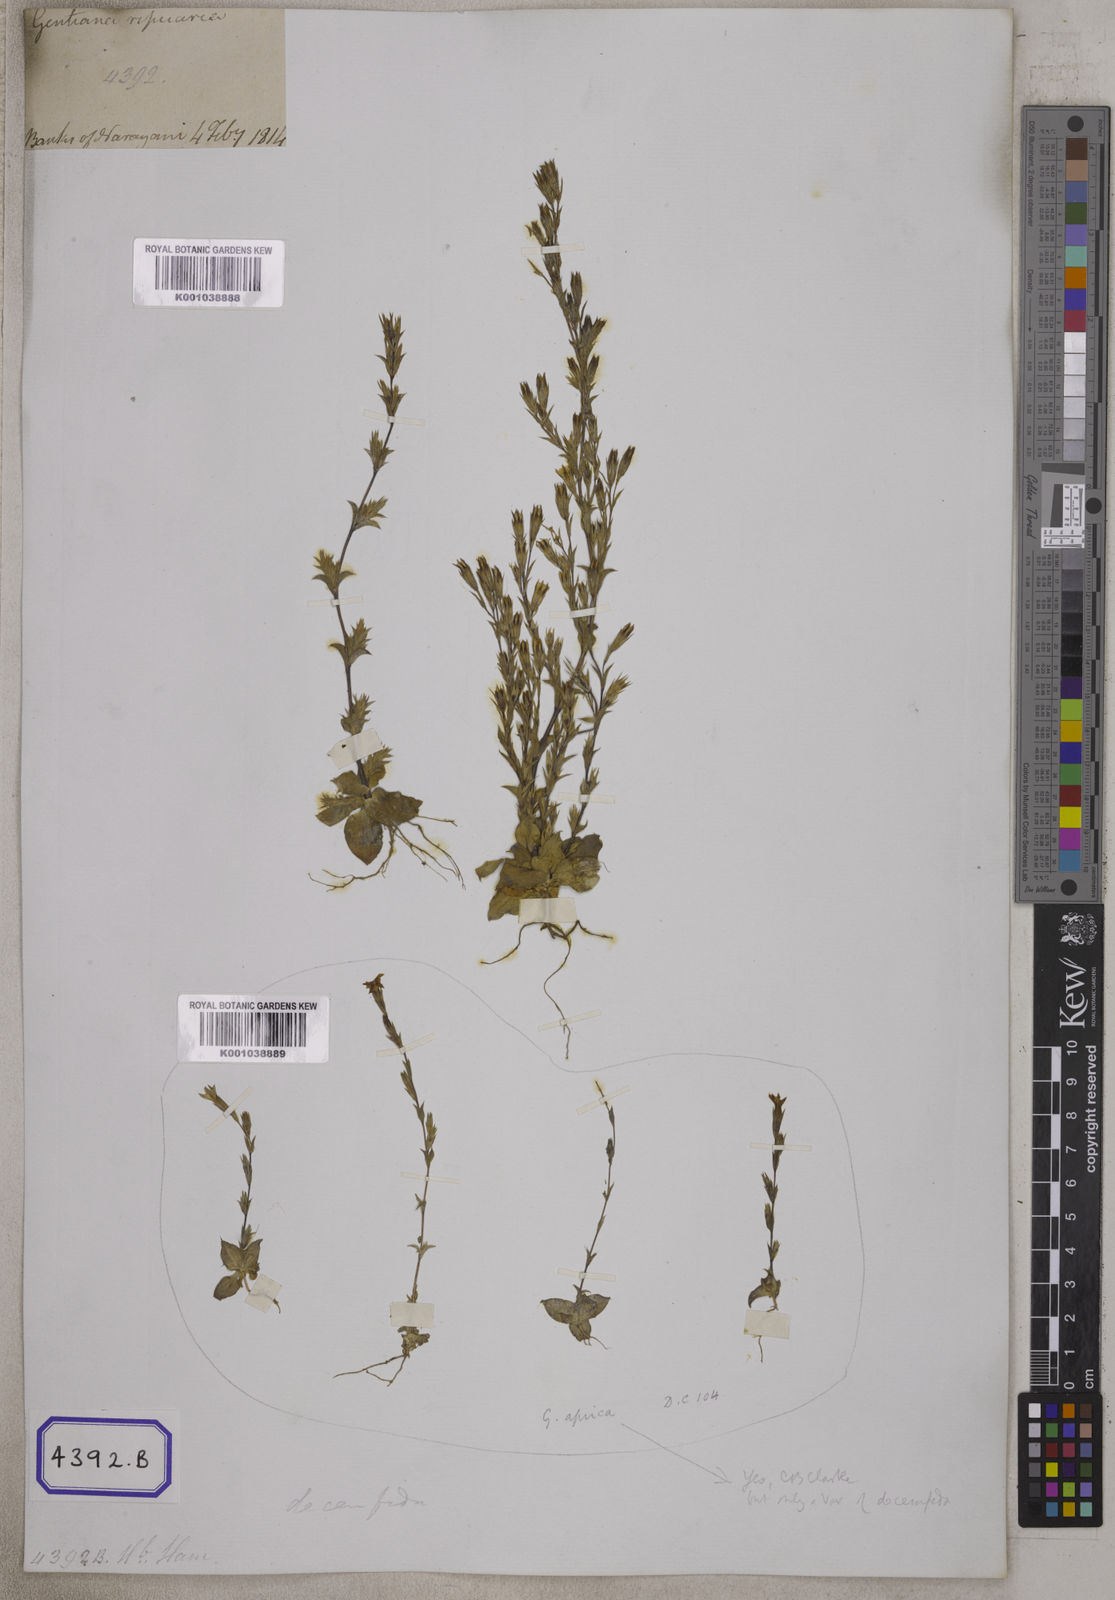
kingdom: Plantae
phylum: Tracheophyta
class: Magnoliopsida
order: Gentianales
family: Gentianaceae
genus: Gentiana
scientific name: Gentiana decemfida
